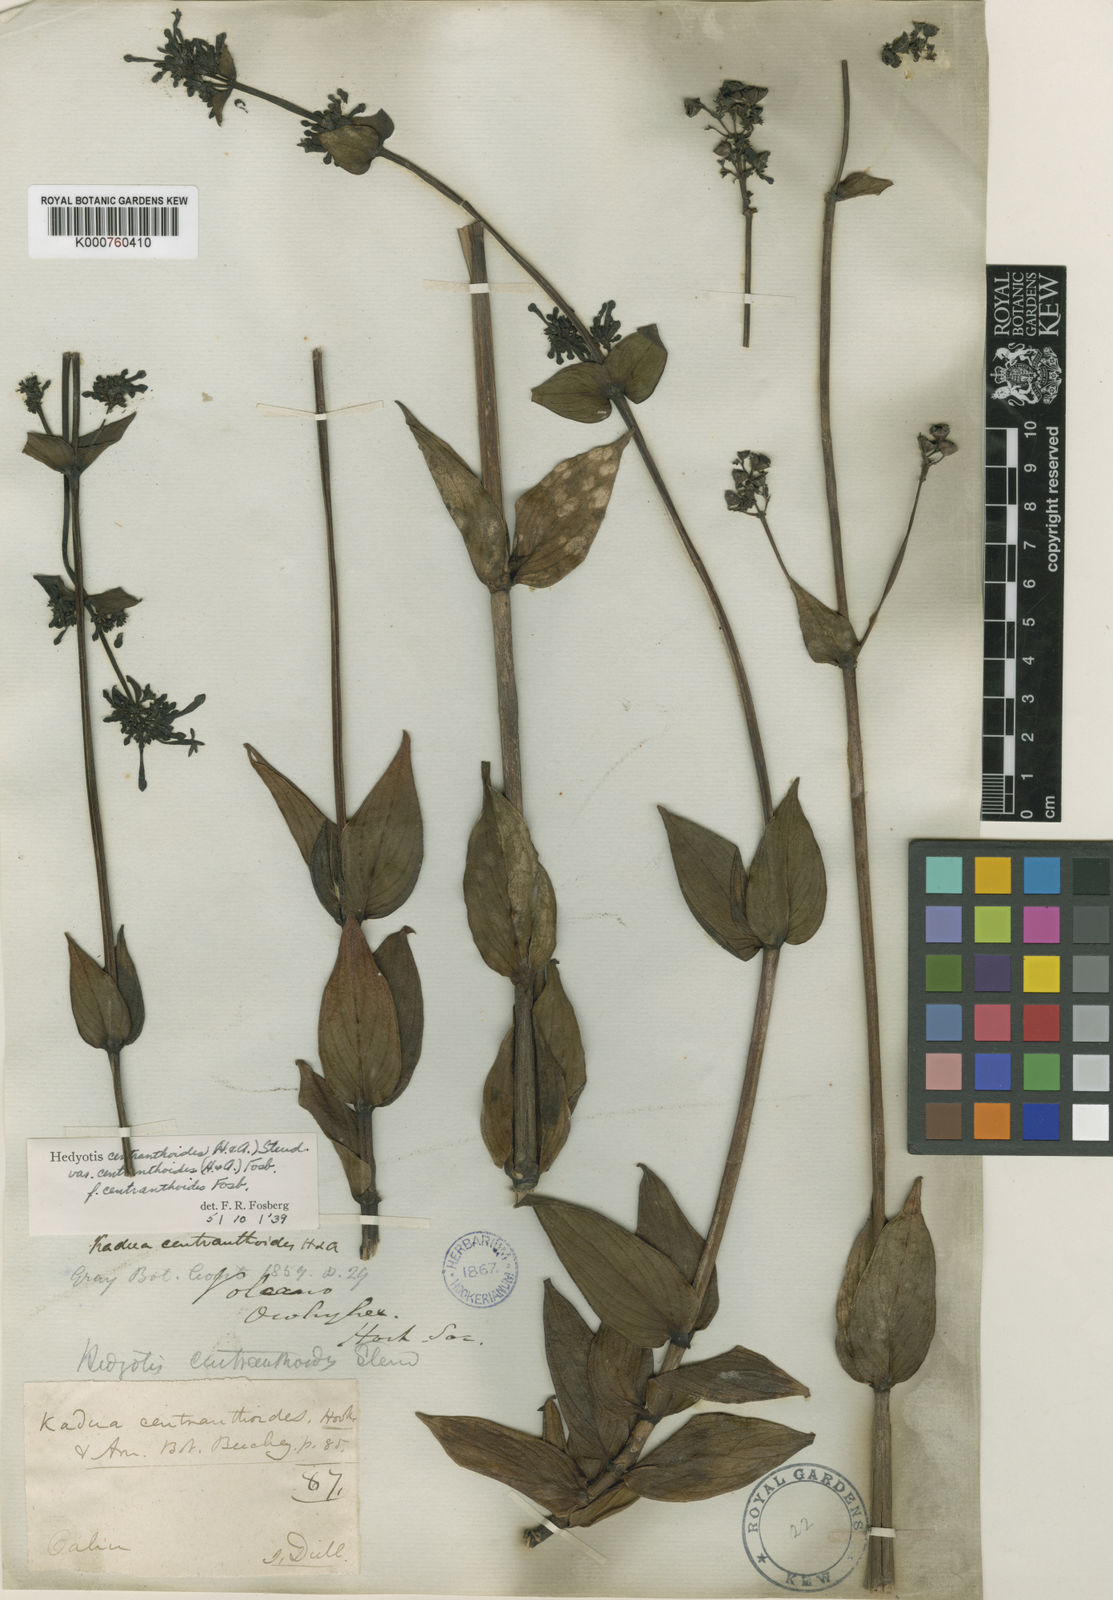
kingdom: Plantae
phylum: Tracheophyta
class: Magnoliopsida
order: Gentianales
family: Rubiaceae
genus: Kadua
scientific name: Kadua centranthoides
